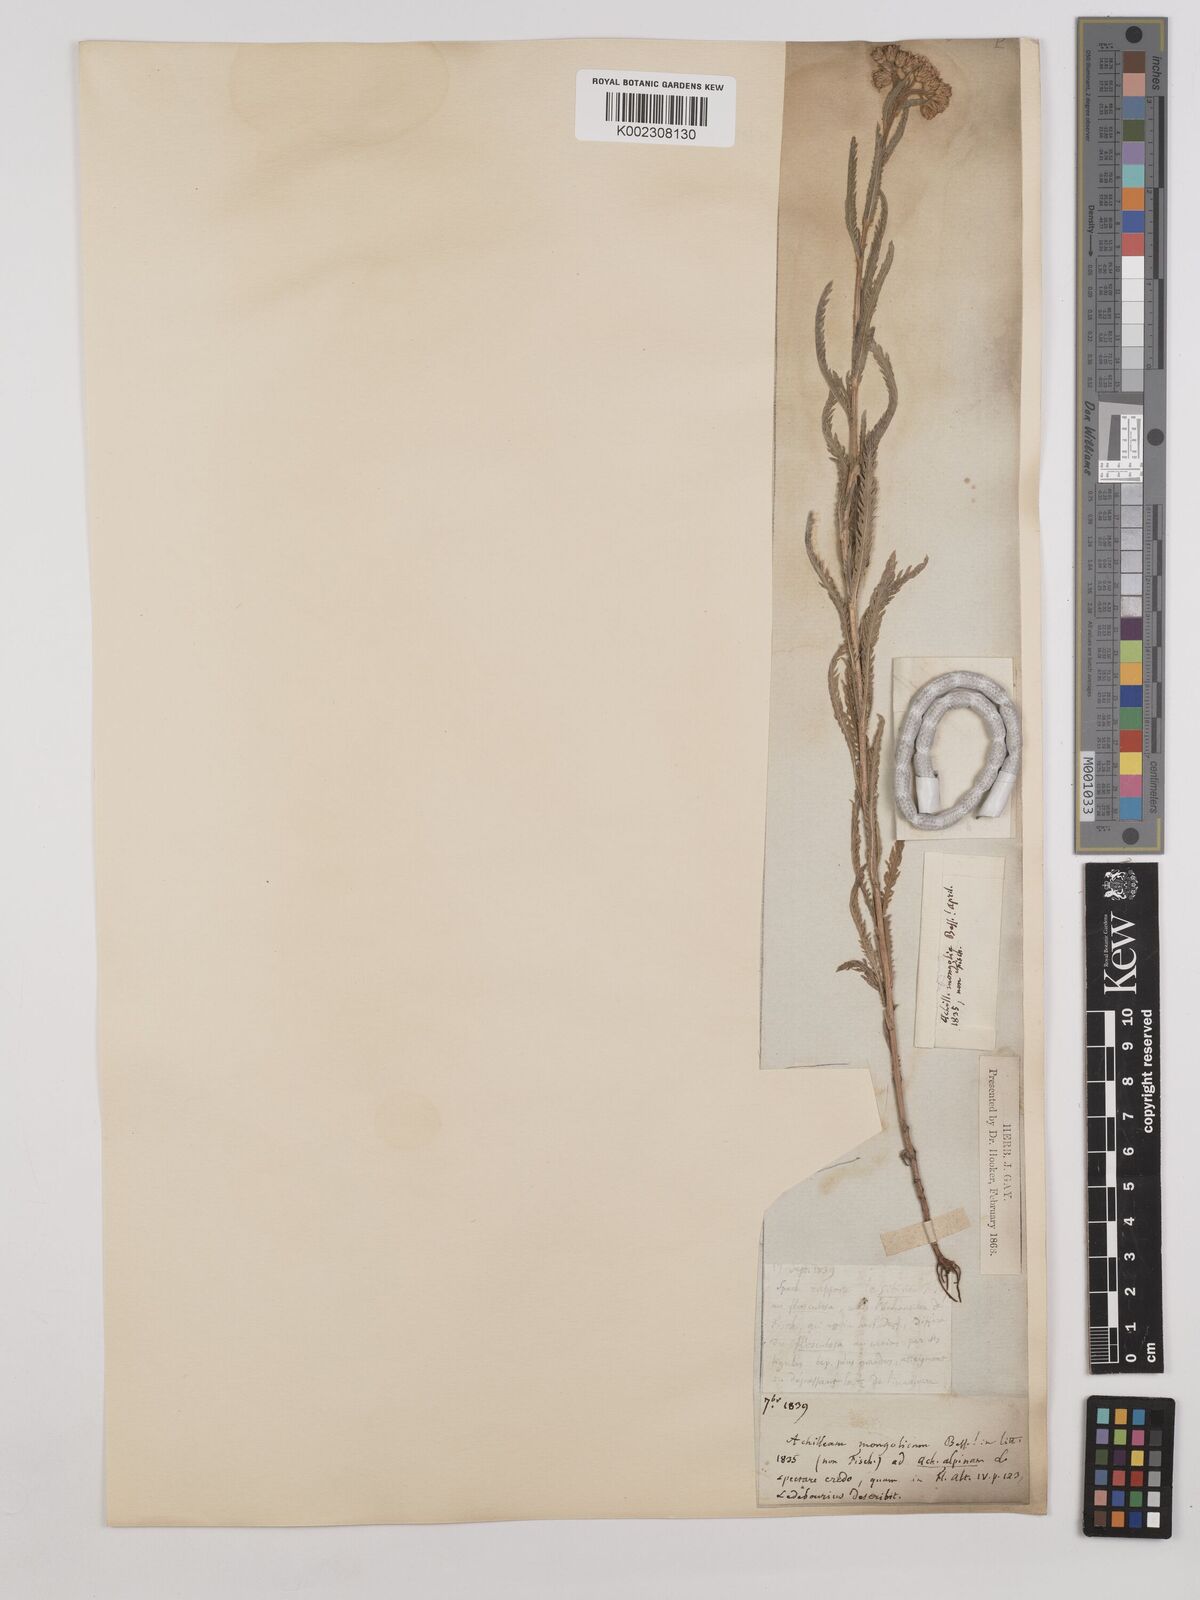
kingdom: Plantae
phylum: Tracheophyta
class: Magnoliopsida
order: Asterales
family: Asteraceae
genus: Achillea
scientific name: Achillea alpina
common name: Siberian yarrow
